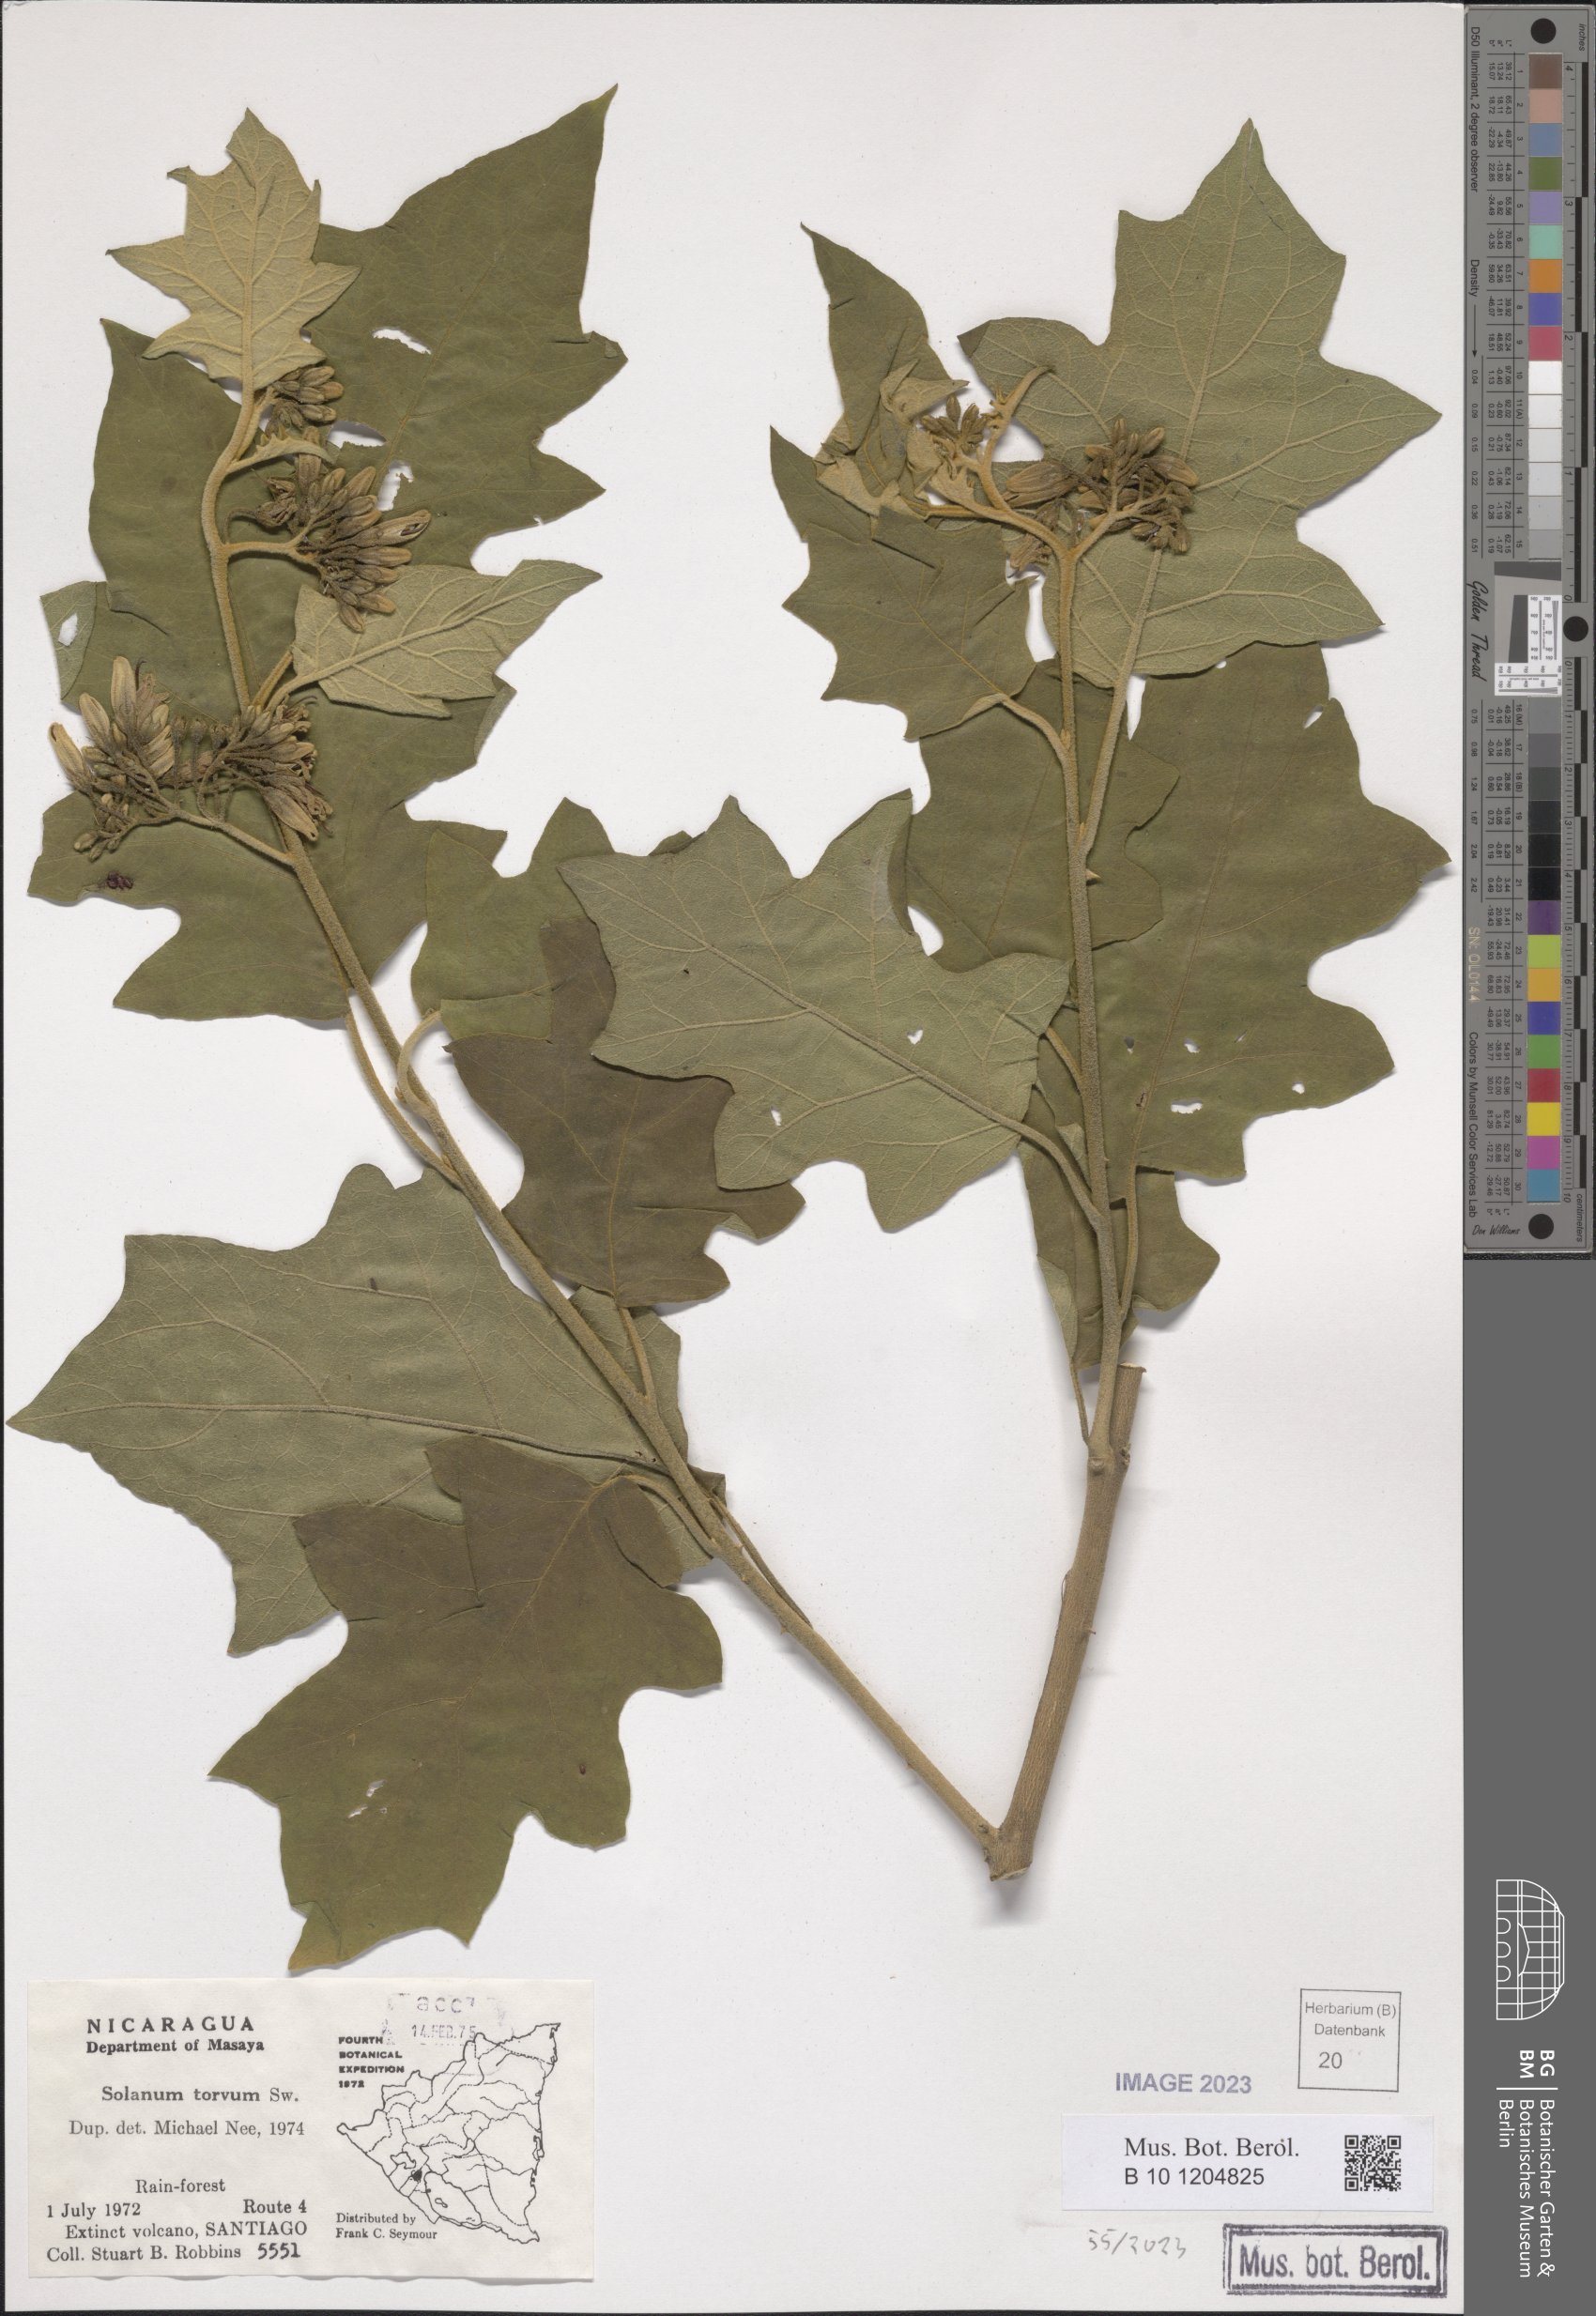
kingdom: Plantae
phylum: Tracheophyta
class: Magnoliopsida
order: Solanales
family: Solanaceae
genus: Solanum
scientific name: Solanum torvum
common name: Turkey berry
